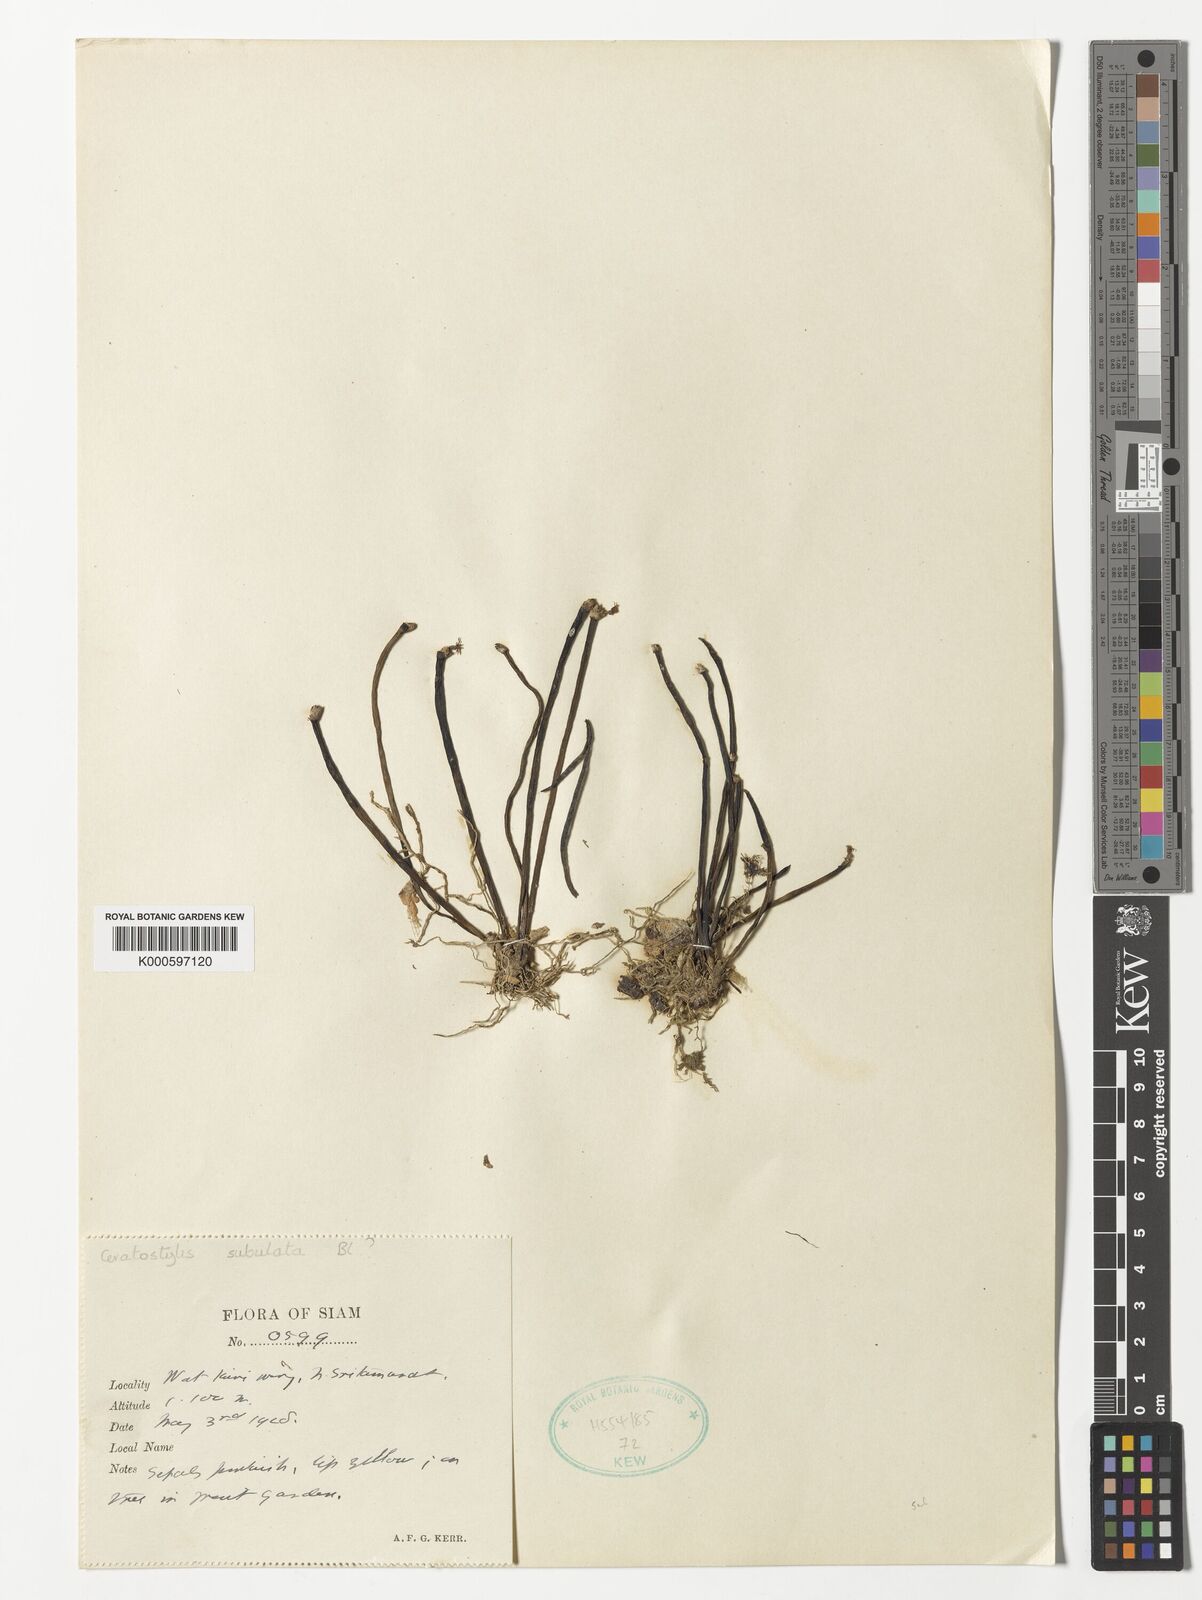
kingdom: Plantae
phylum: Tracheophyta
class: Liliopsida
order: Asparagales
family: Orchidaceae
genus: Ceratostylis
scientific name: Ceratostylis subulata
